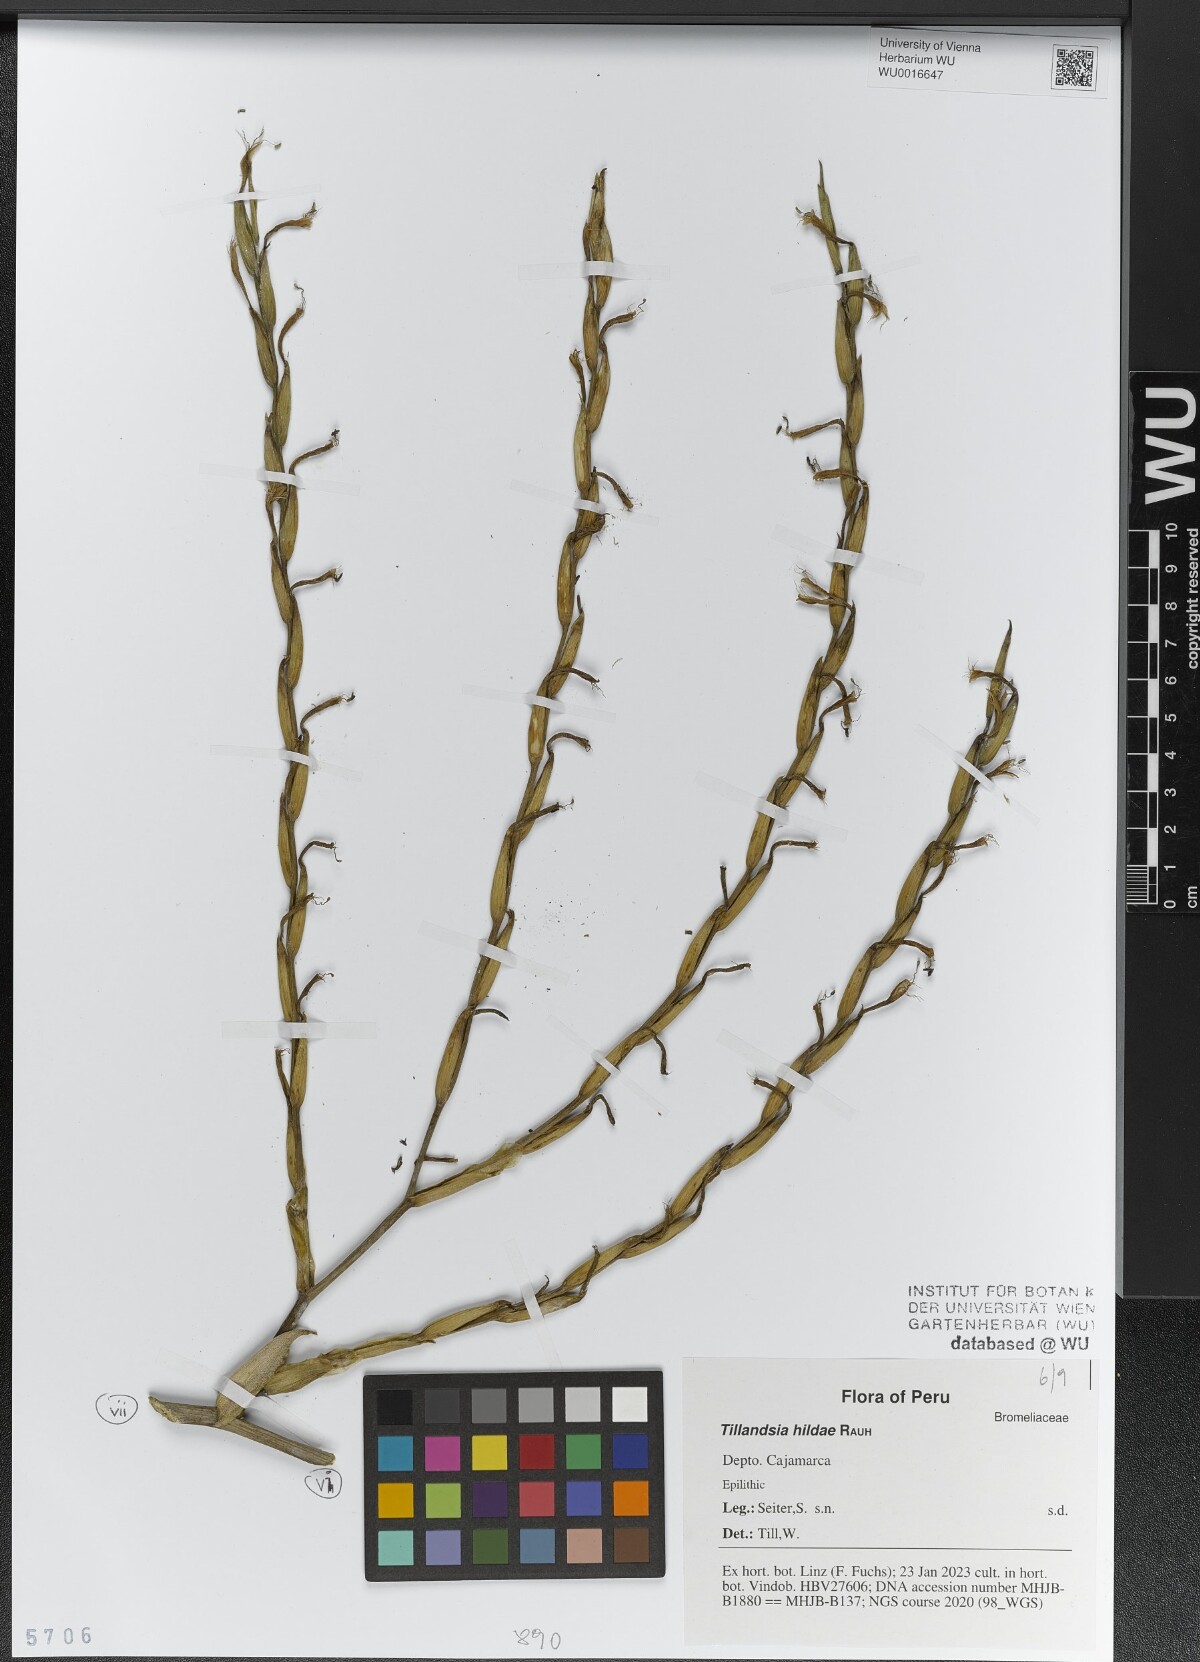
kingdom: Plantae
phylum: Tracheophyta
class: Liliopsida
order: Poales
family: Bromeliaceae
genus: Tillandsia
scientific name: Tillandsia hildae
